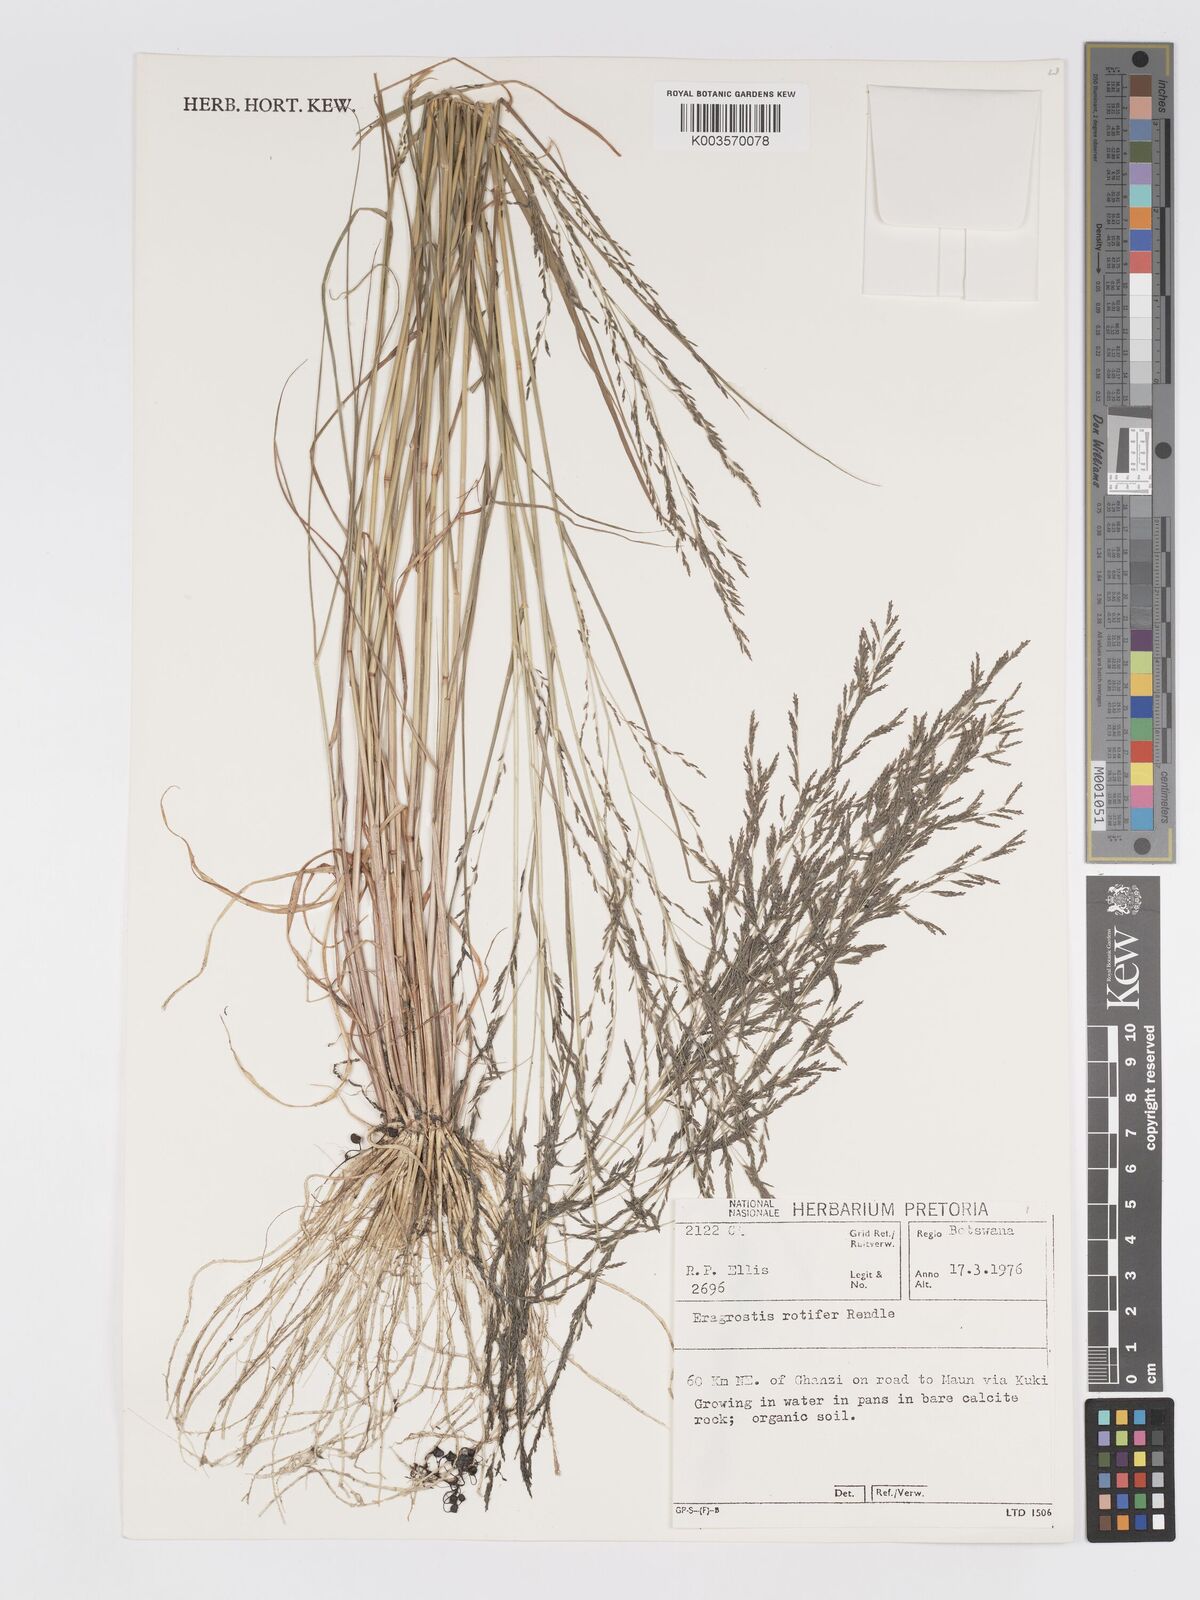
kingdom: Plantae
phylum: Tracheophyta
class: Liliopsida
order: Poales
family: Poaceae
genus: Eragrostis
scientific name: Eragrostis rotifer
